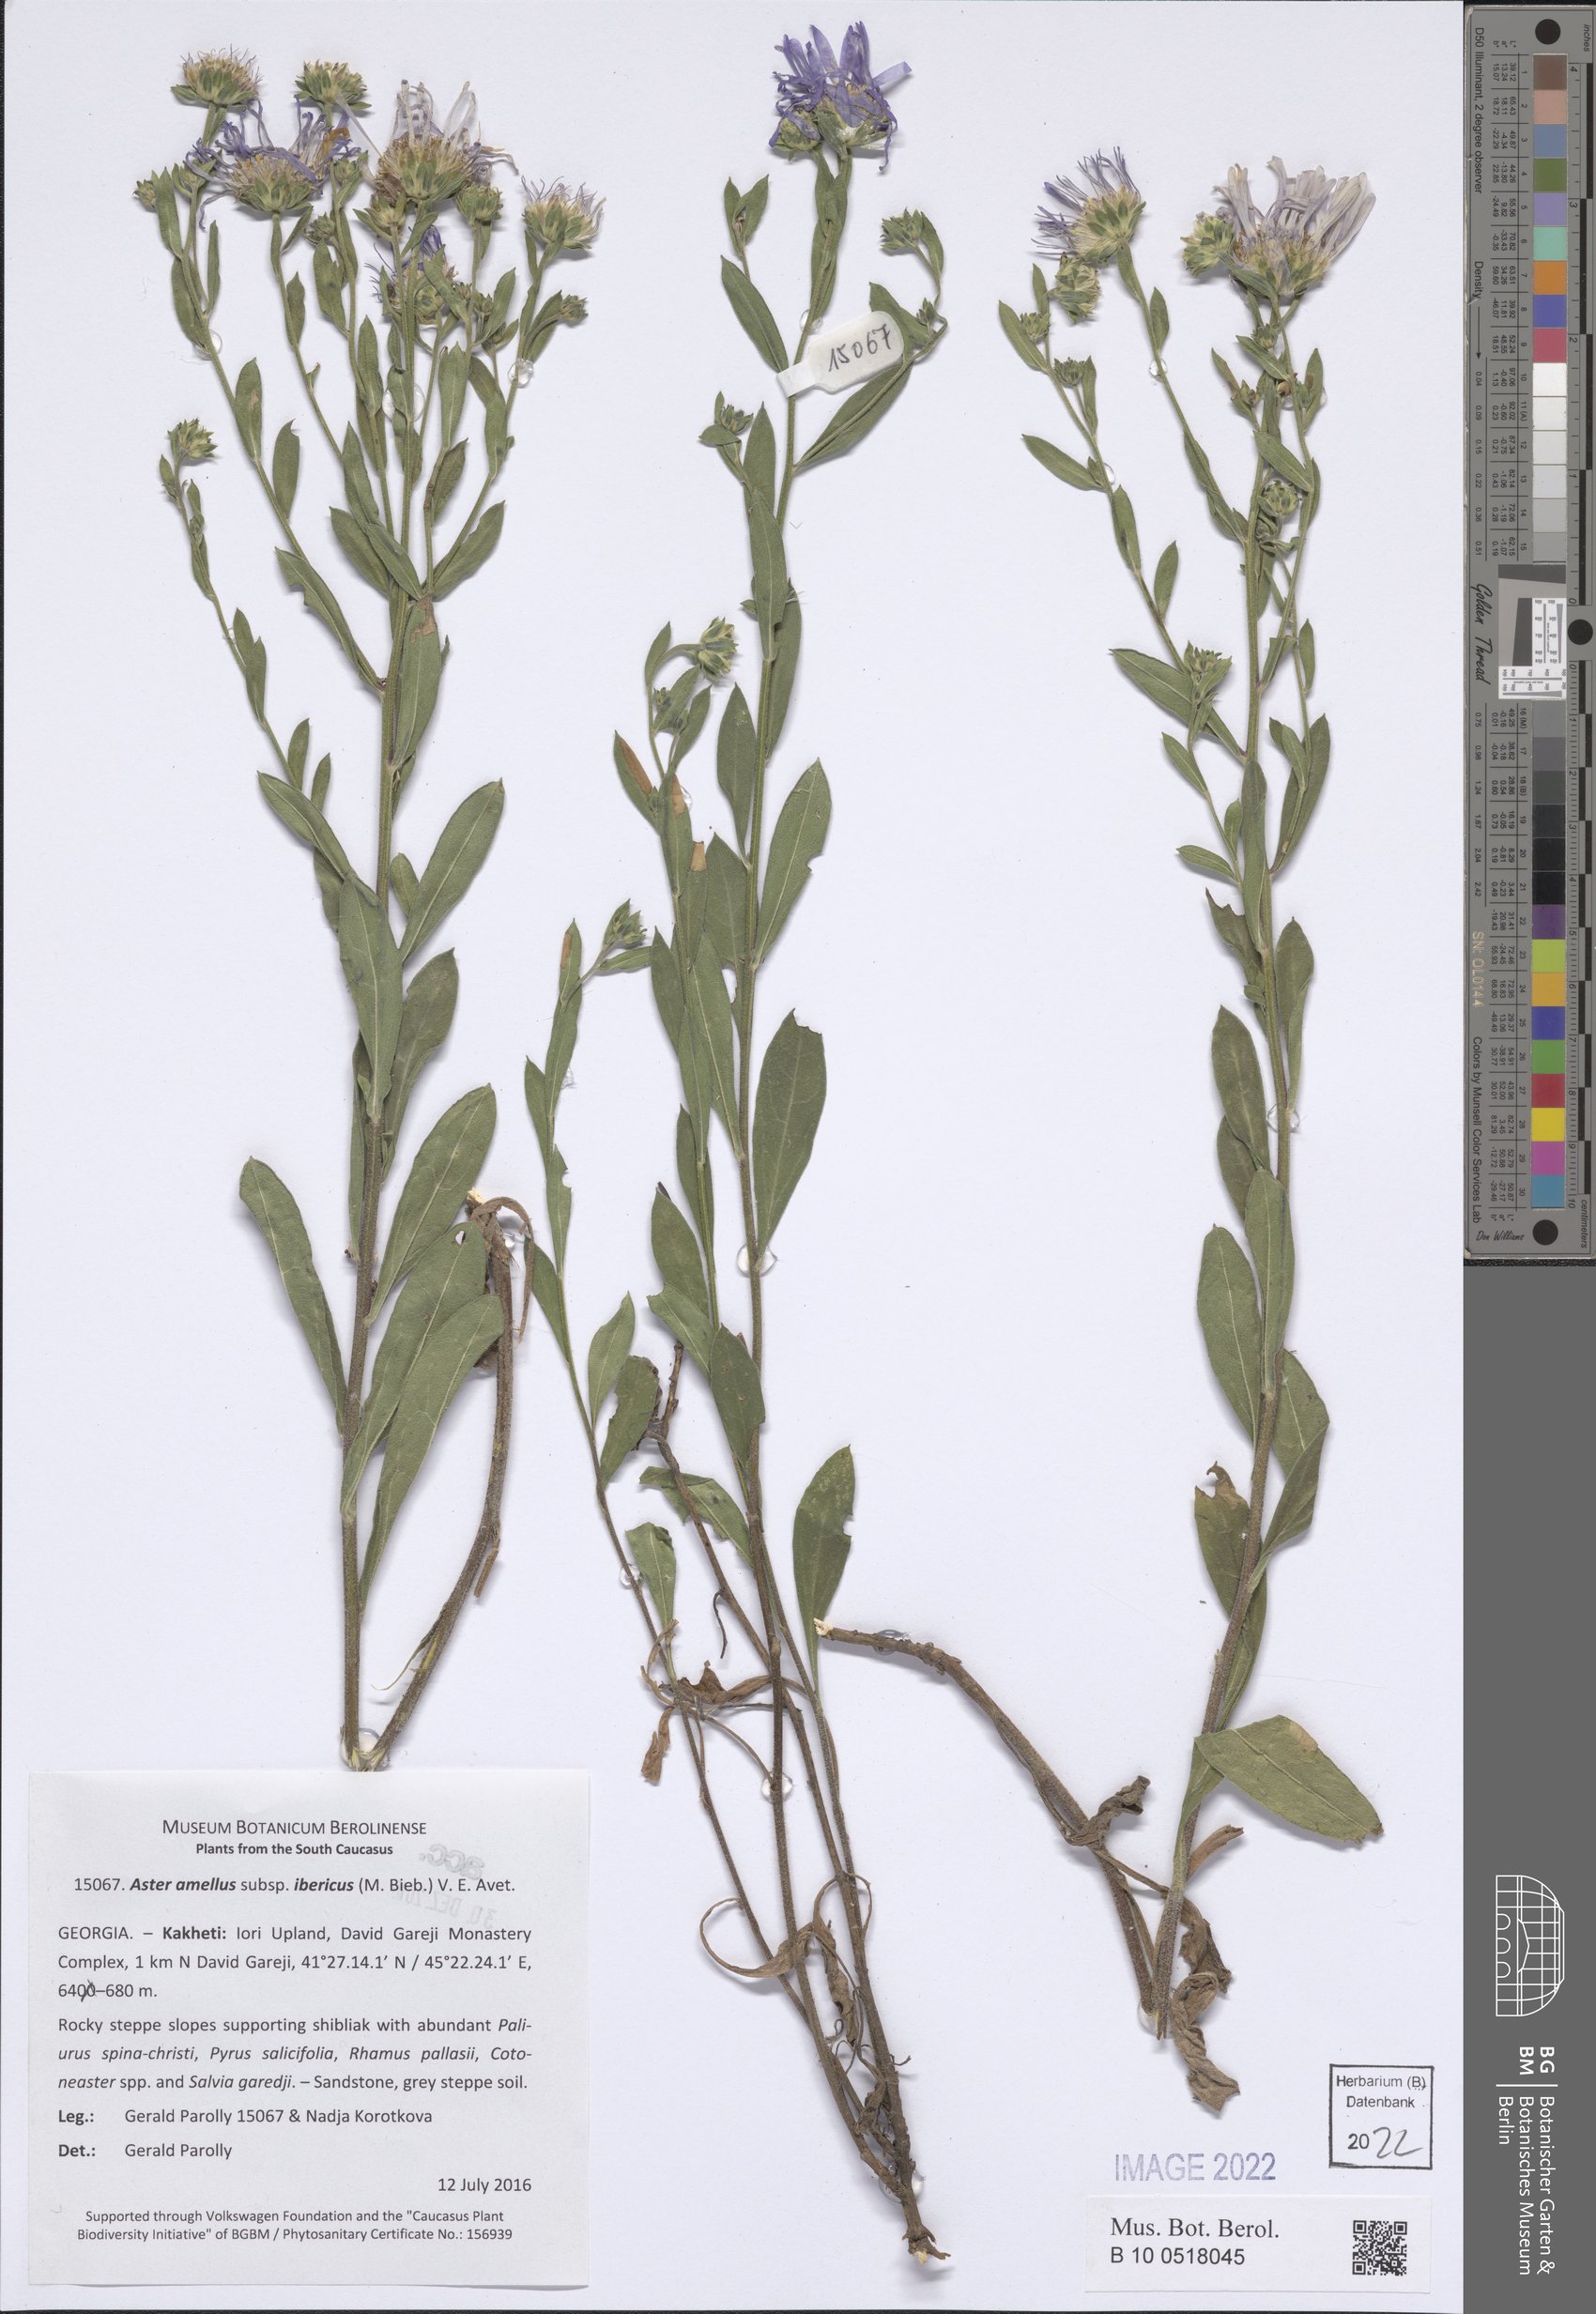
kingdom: Plantae
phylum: Tracheophyta
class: Magnoliopsida
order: Asterales
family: Asteraceae
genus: Aster
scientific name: Aster amellus
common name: European michaelmas daisy
